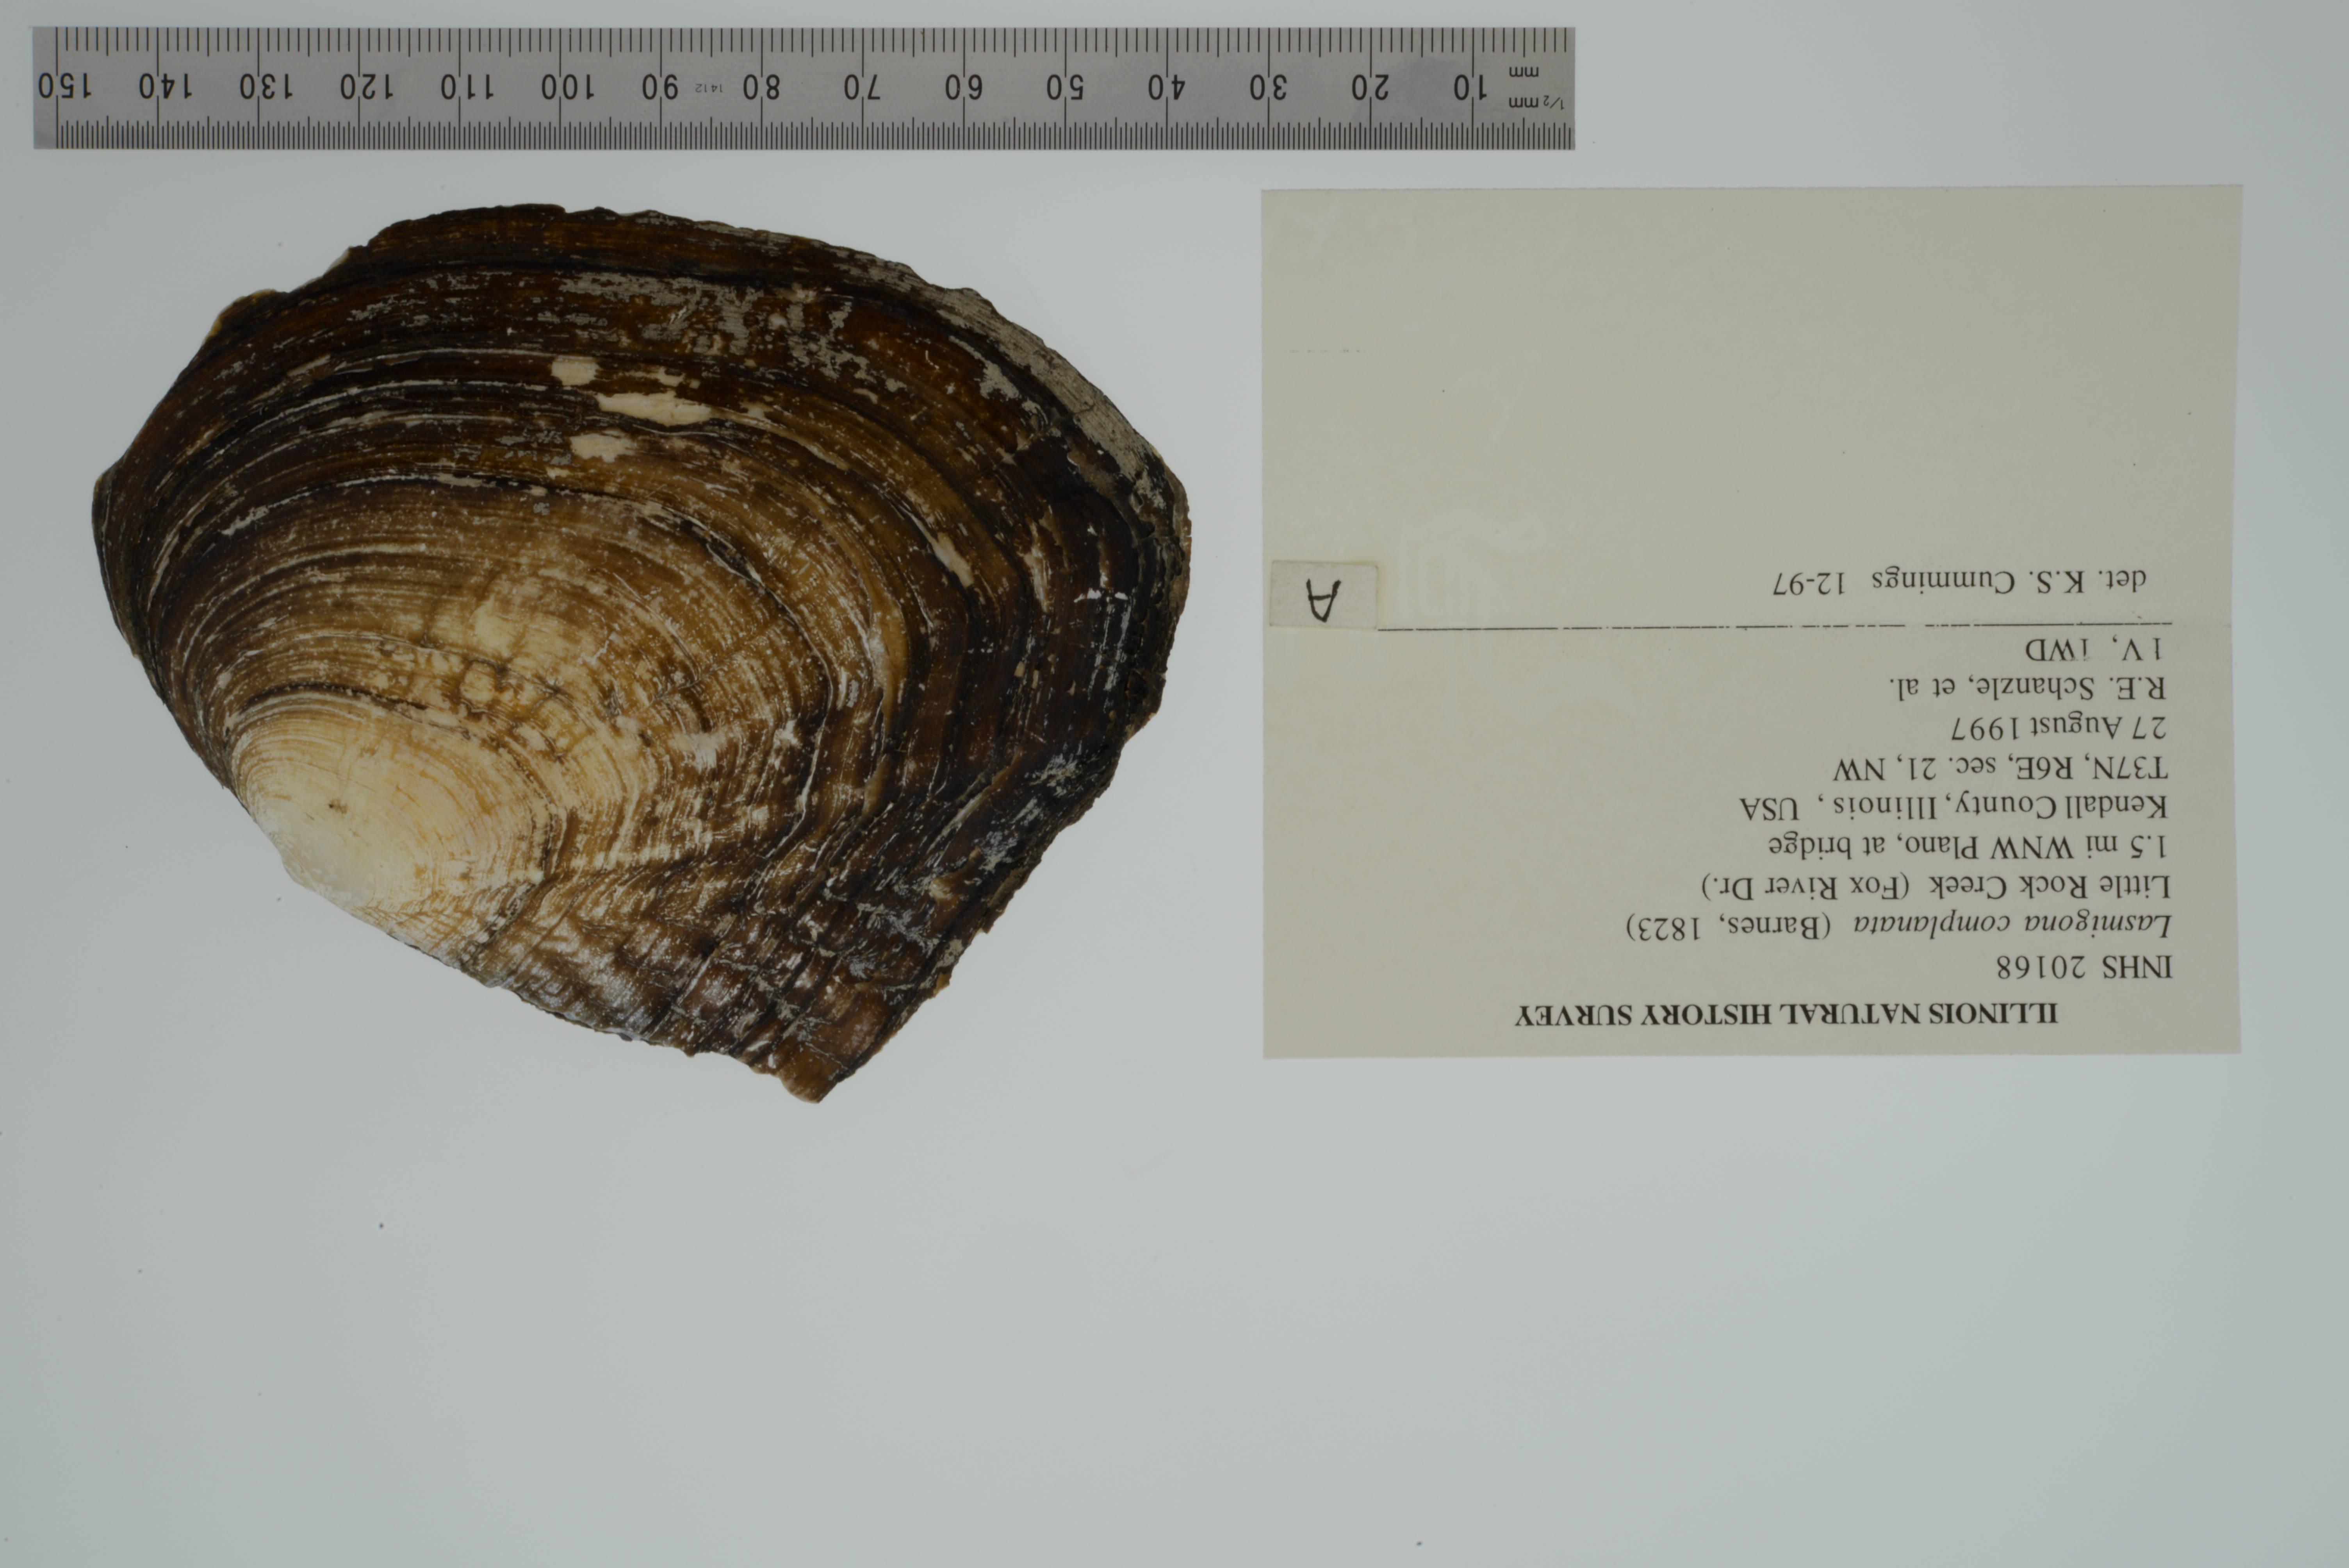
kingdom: Animalia
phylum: Mollusca
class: Bivalvia
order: Unionida
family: Unionidae
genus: Lasmigona
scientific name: Lasmigona complanata
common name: White heelsplitter
